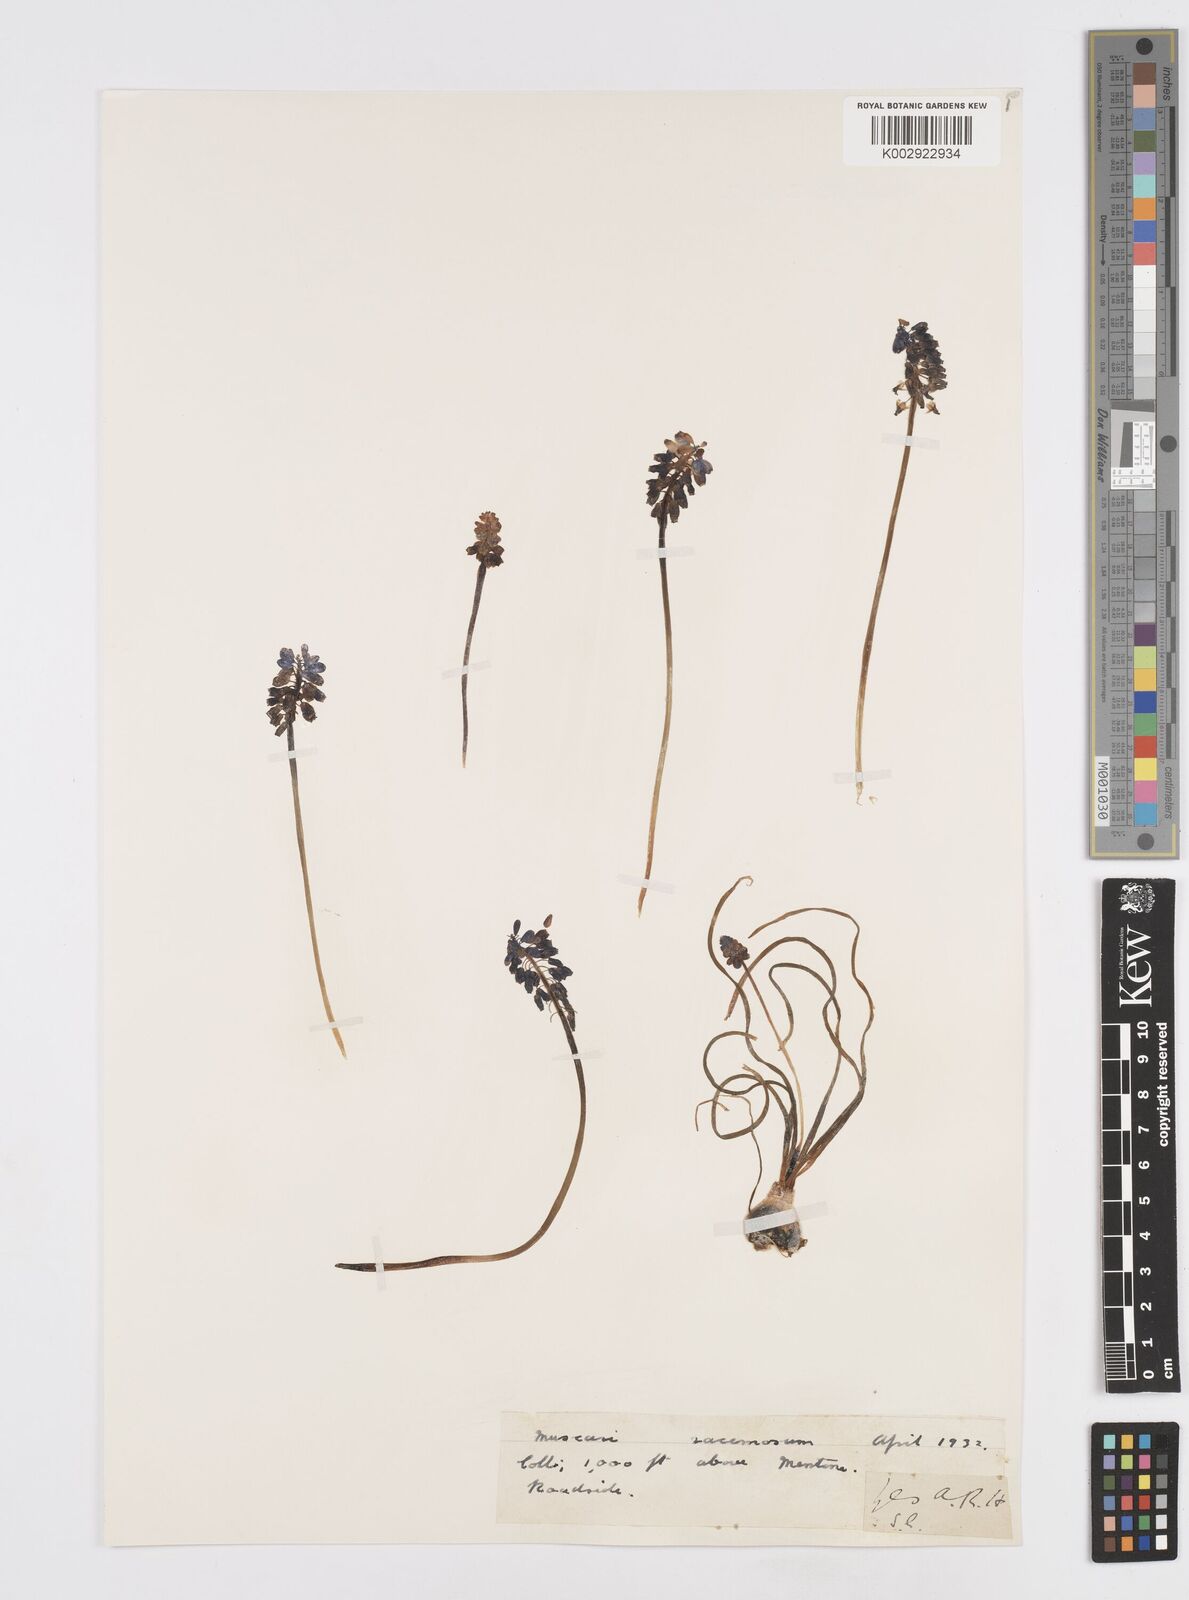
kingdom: Plantae
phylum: Tracheophyta
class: Liliopsida
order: Asparagales
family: Asparagaceae
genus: Muscarimia
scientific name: Muscarimia muscari
